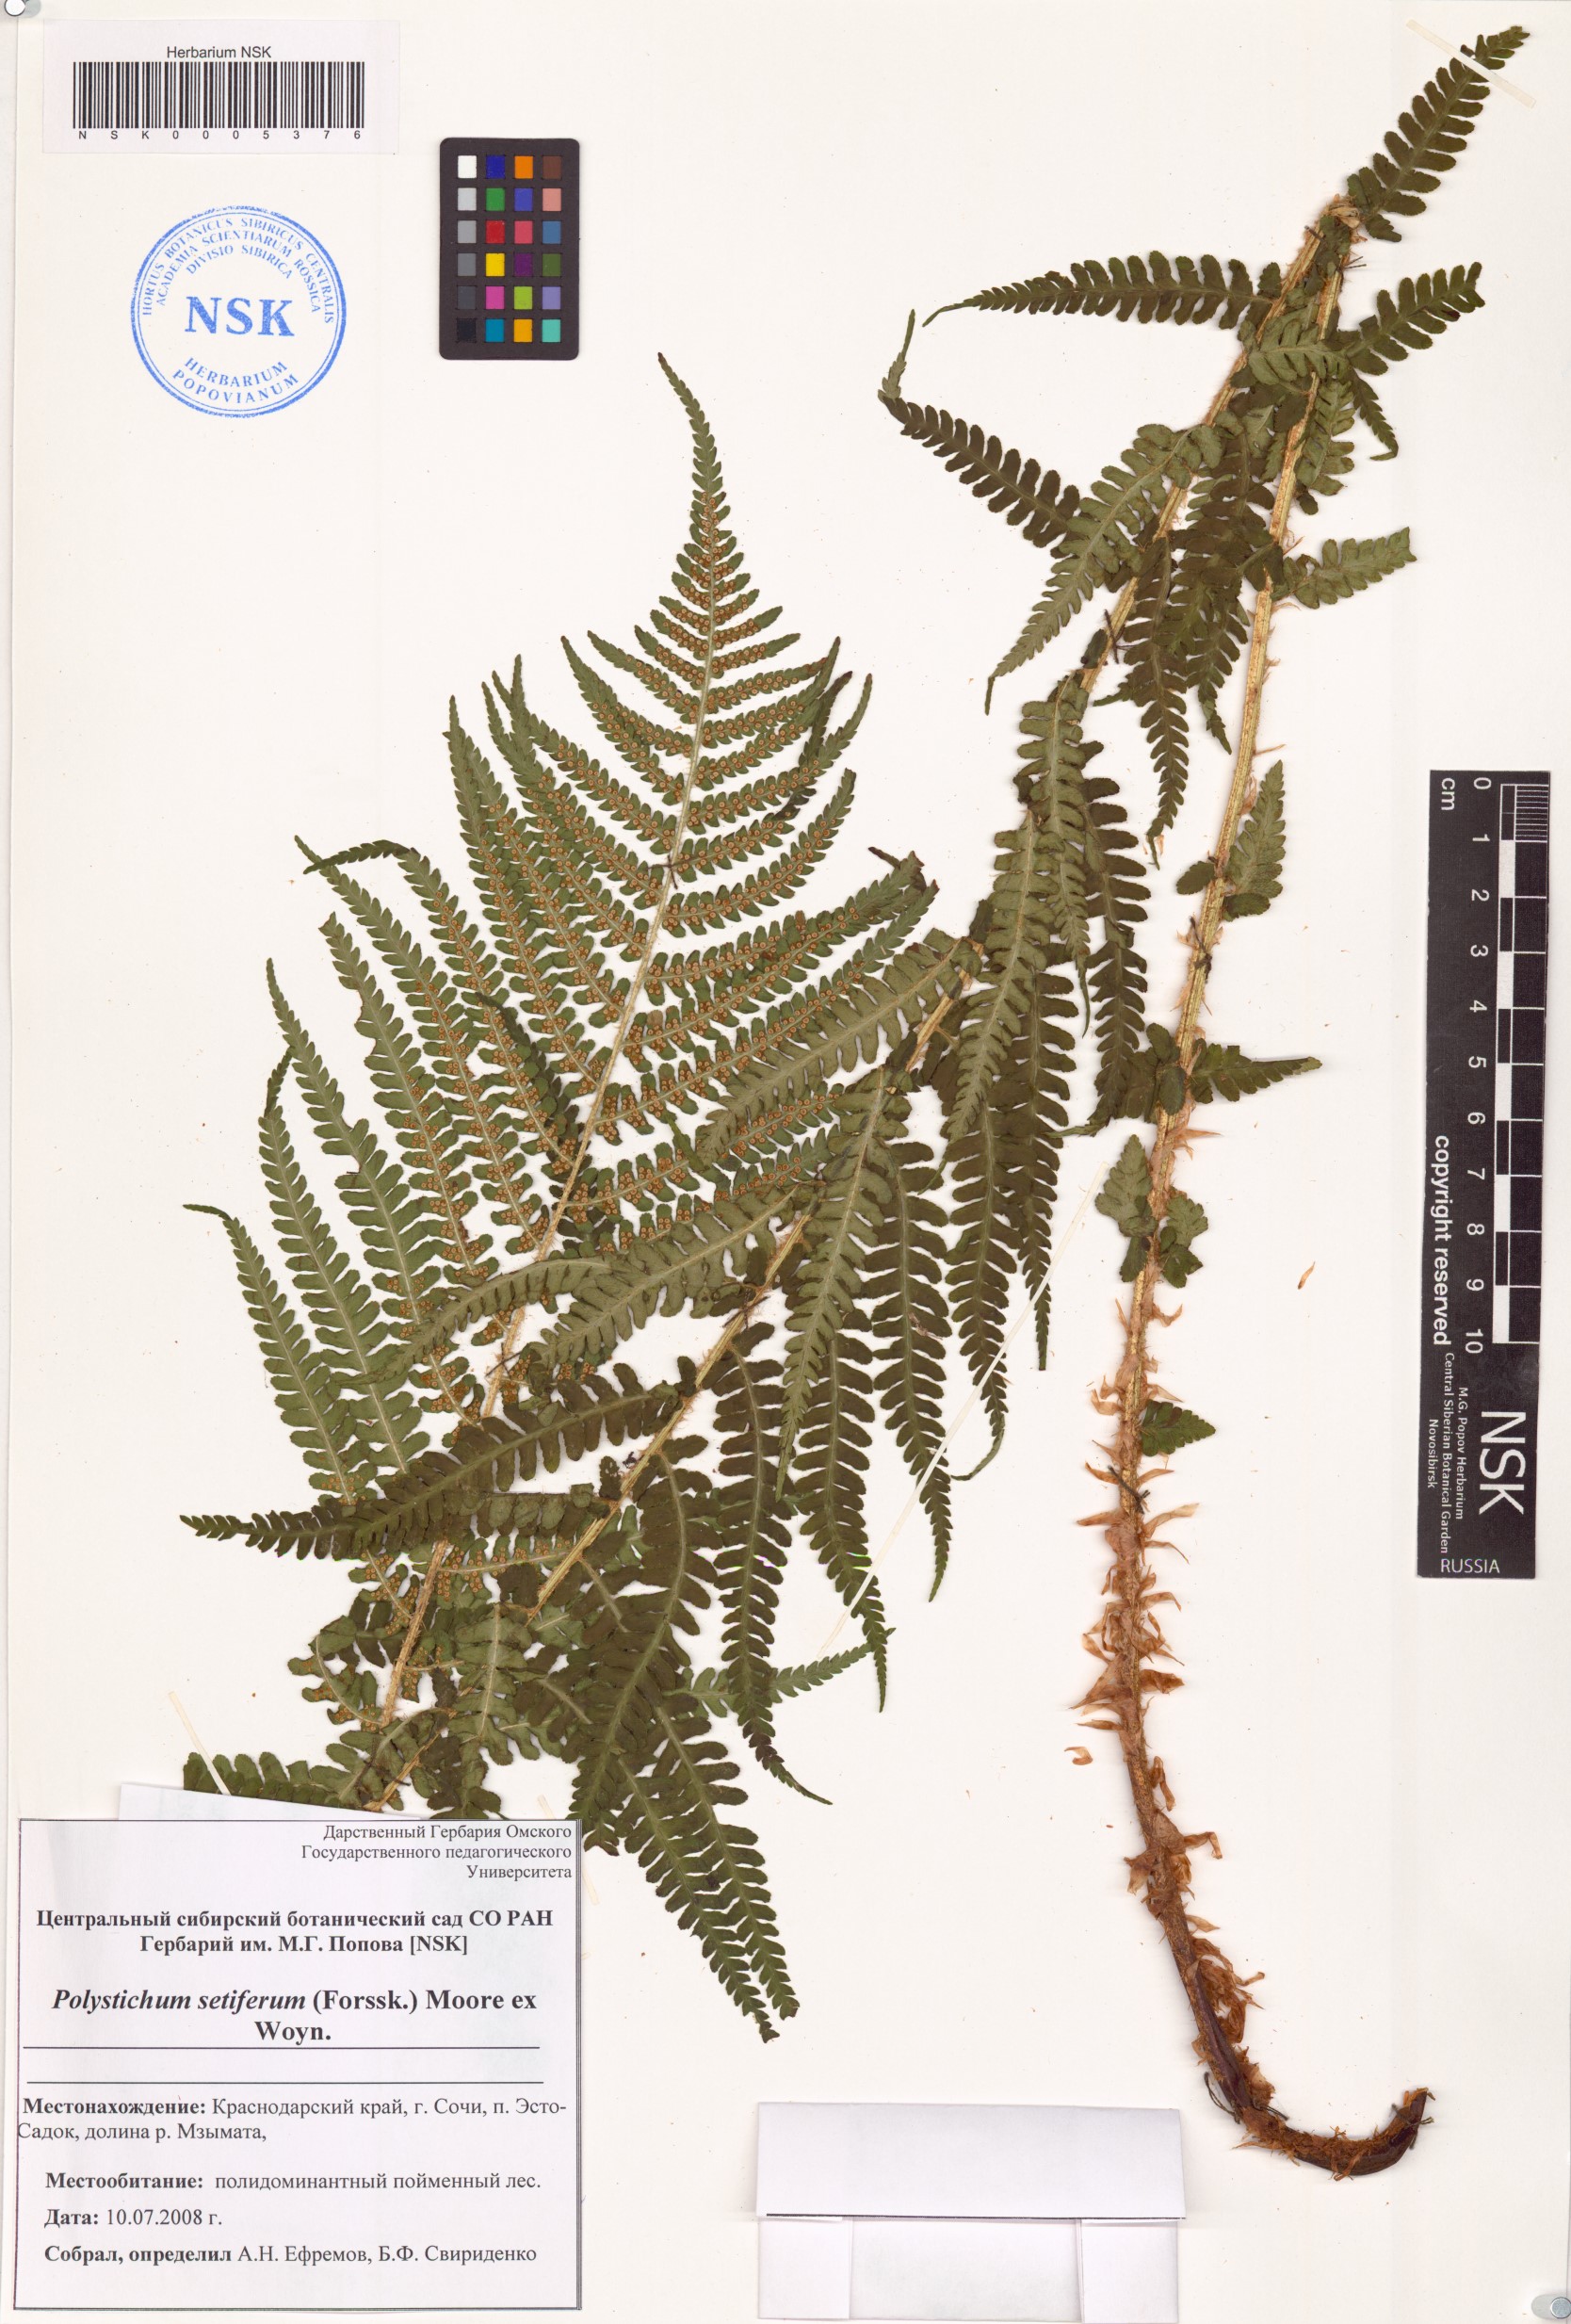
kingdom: Plantae
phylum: Tracheophyta
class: Polypodiopsida
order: Polypodiales
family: Dryopteridaceae
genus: Polystichum
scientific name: Polystichum setiferum
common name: Soft shield-fern
